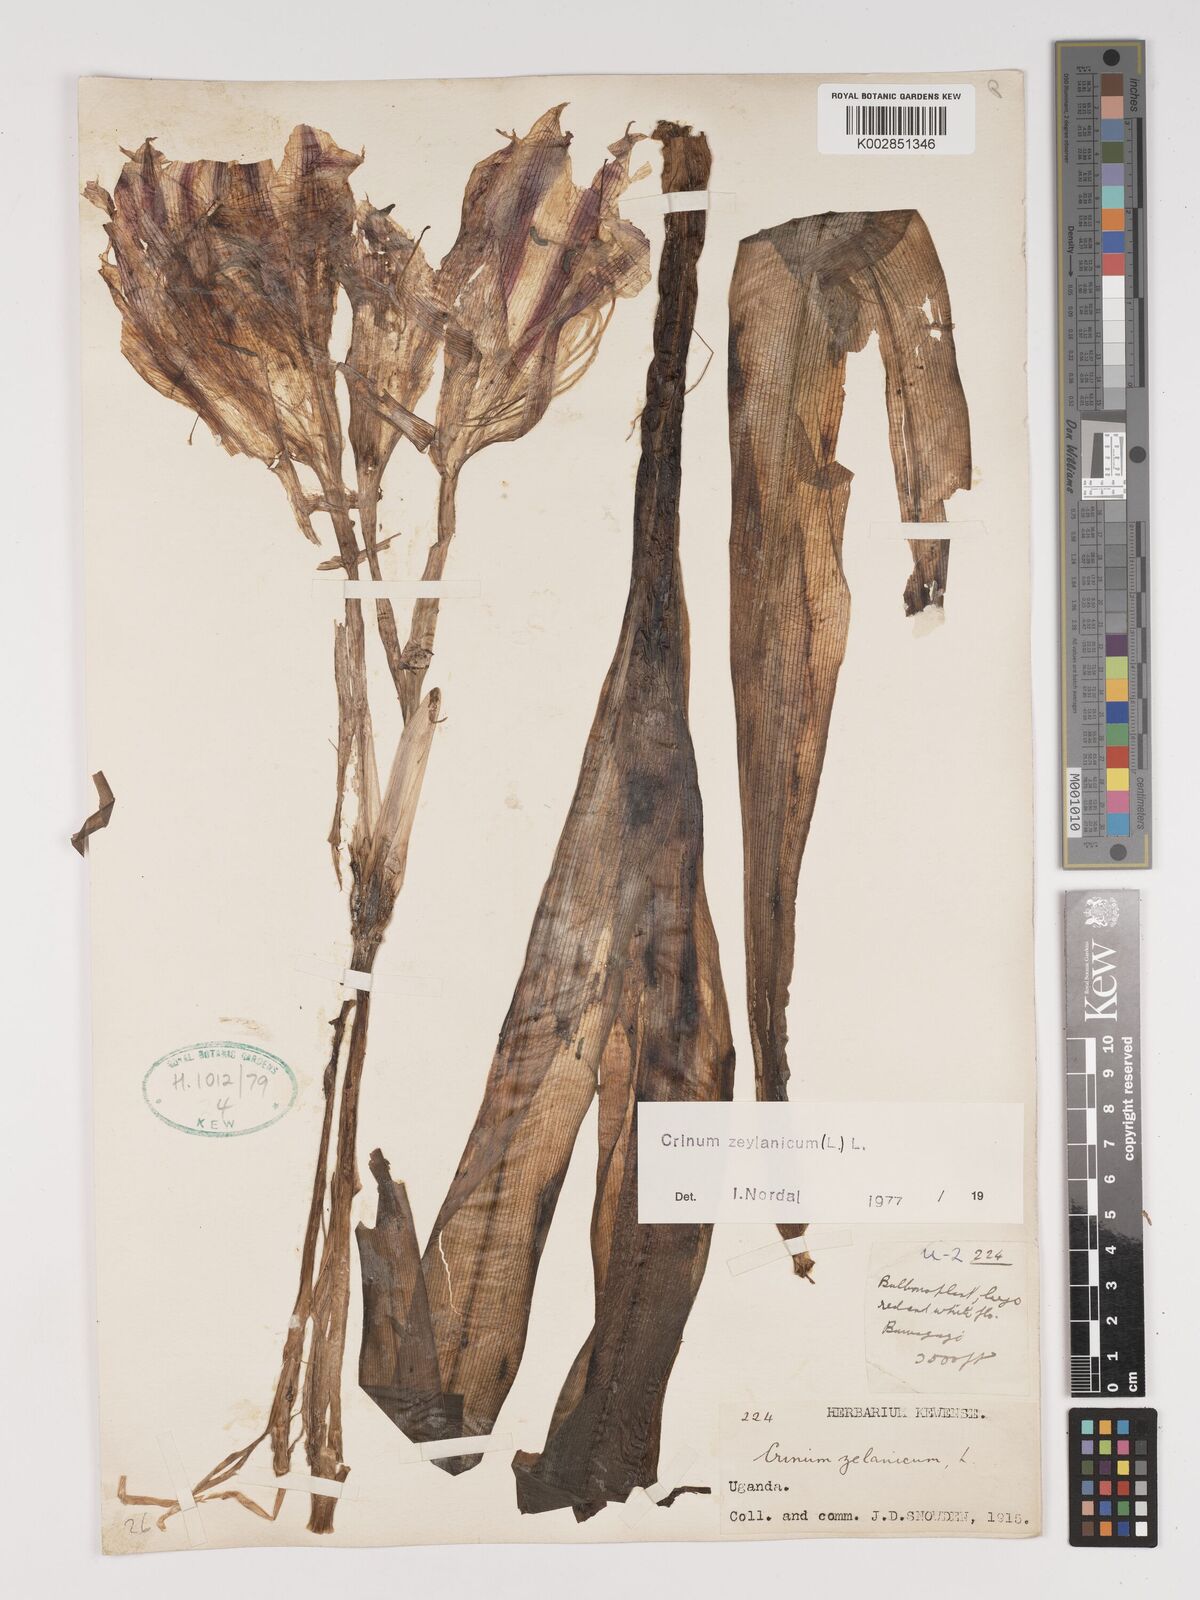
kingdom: Plantae
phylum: Tracheophyta
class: Liliopsida
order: Asparagales
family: Amaryllidaceae
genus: Crinum
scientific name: Crinum zeylanicum
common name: Ceylon swamplily
